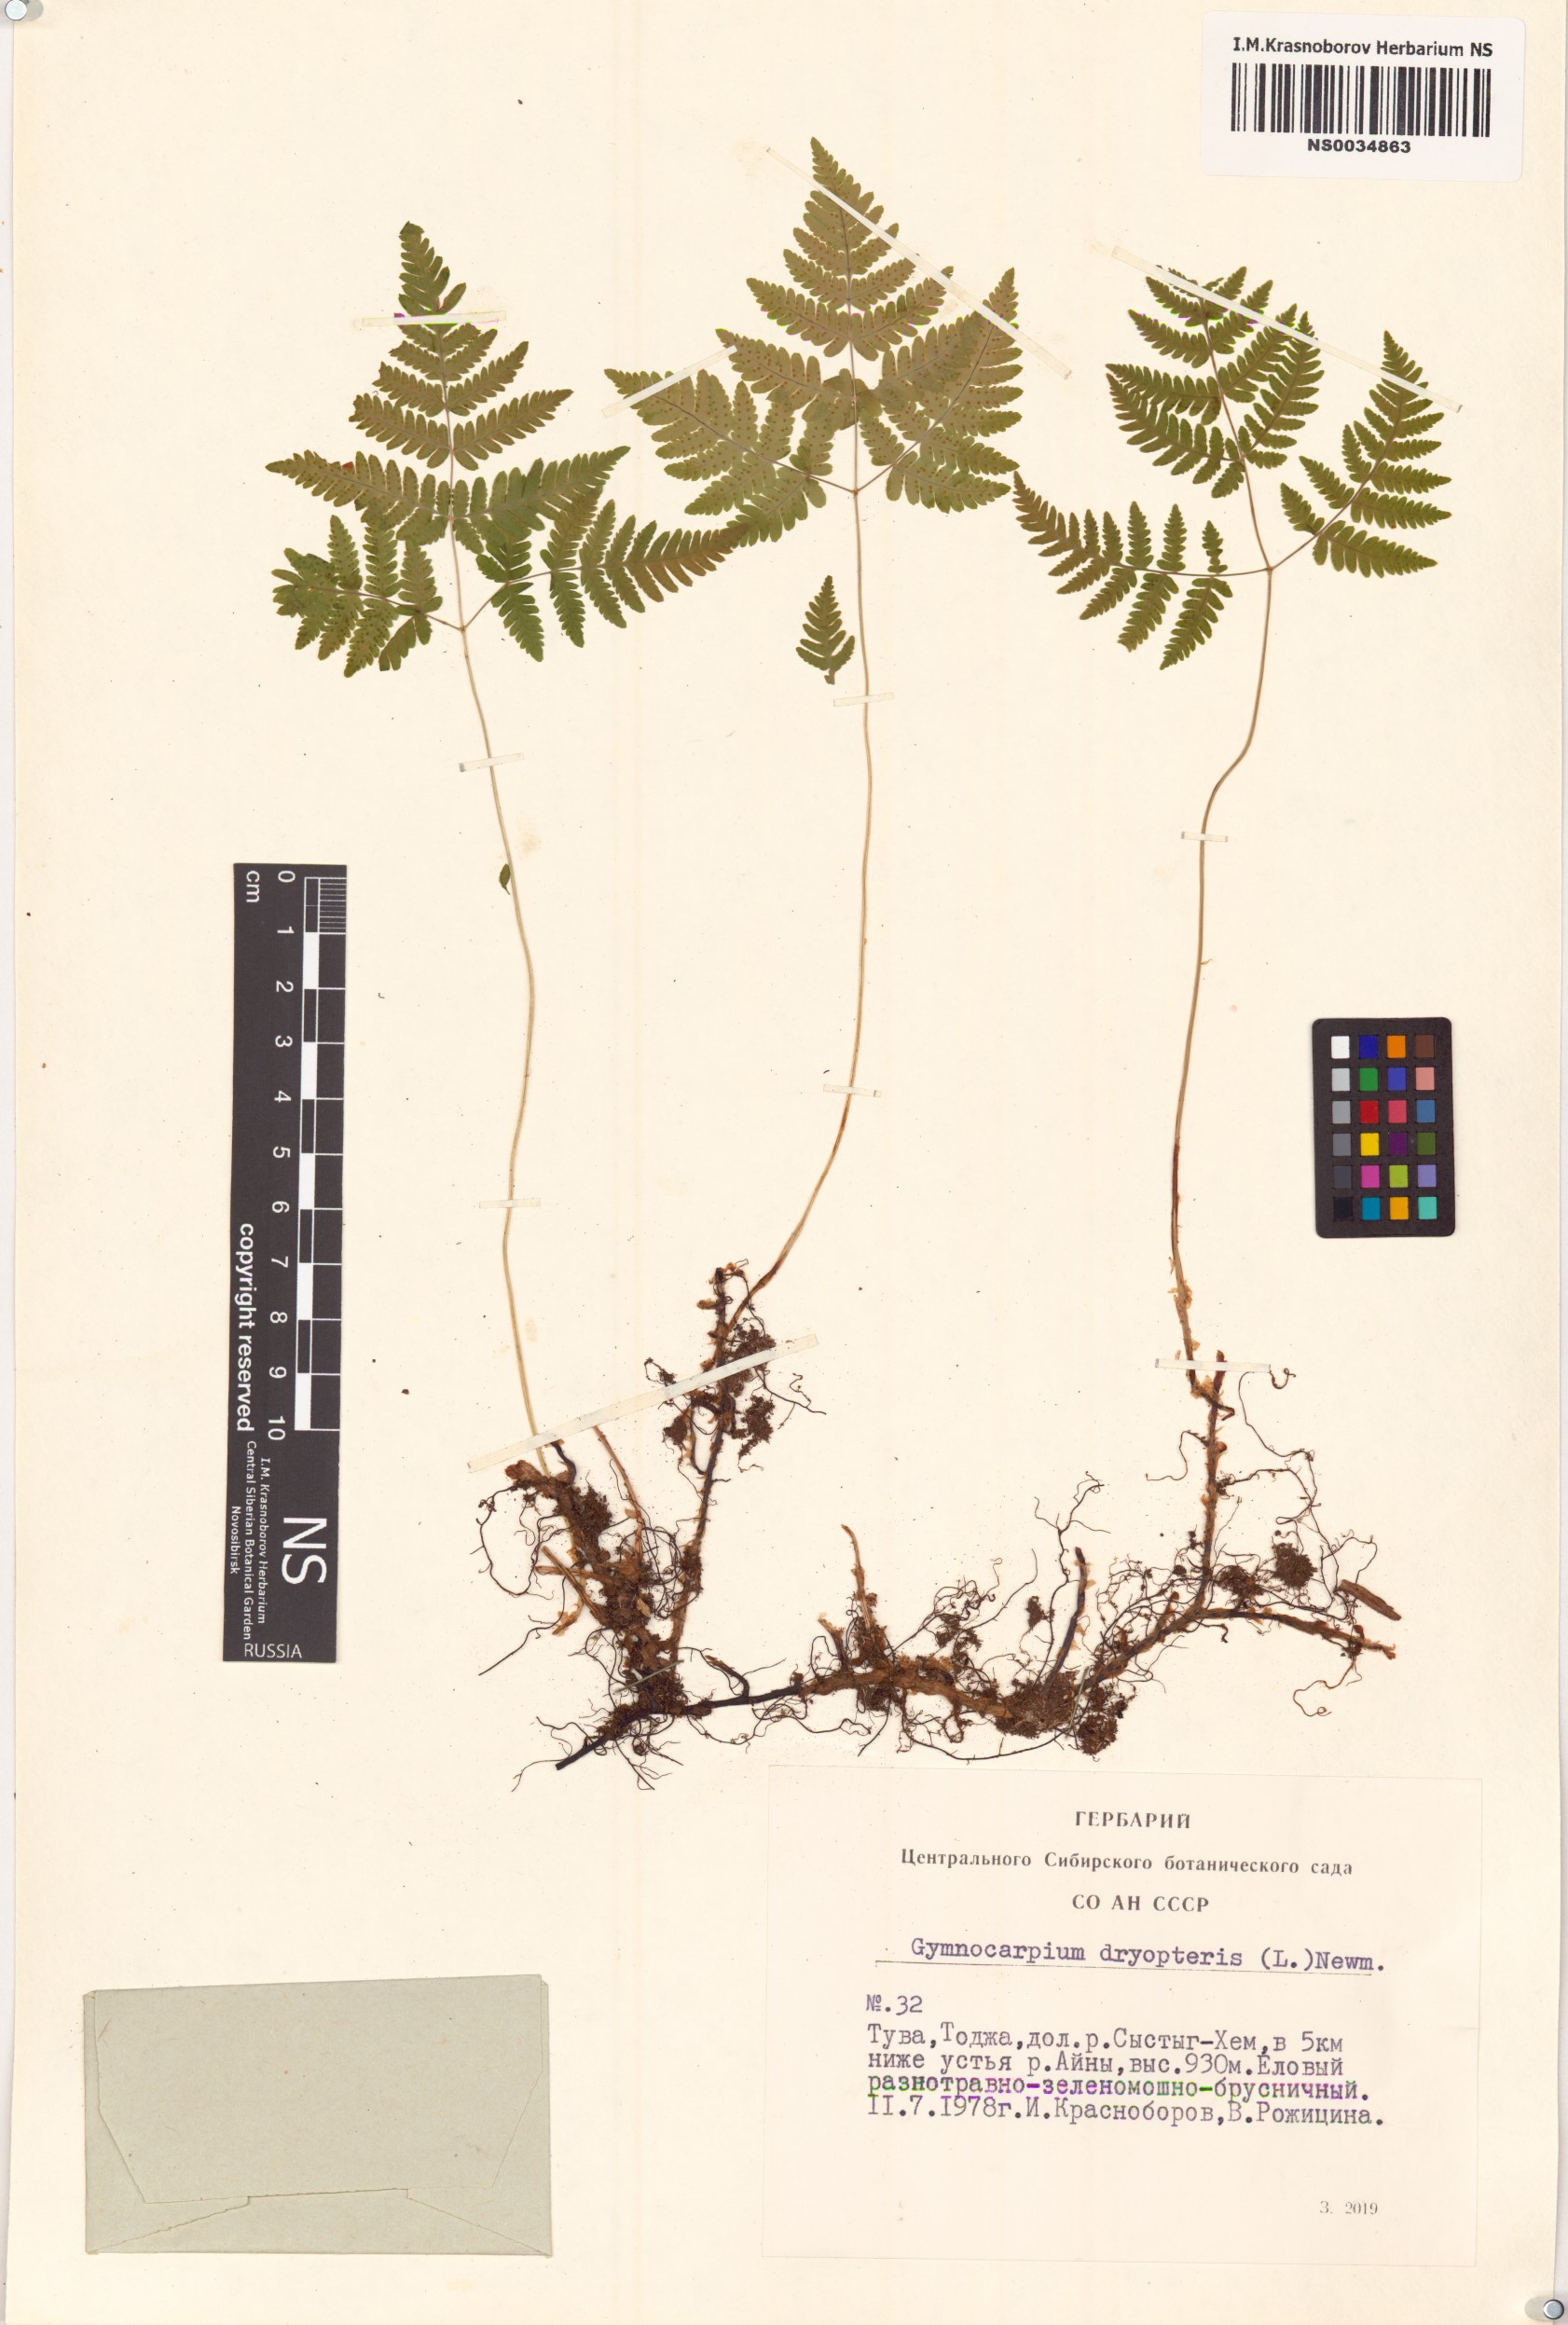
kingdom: Plantae
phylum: Tracheophyta
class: Polypodiopsida
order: Polypodiales
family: Cystopteridaceae
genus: Gymnocarpium
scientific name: Gymnocarpium dryopteris
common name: Oak fern
